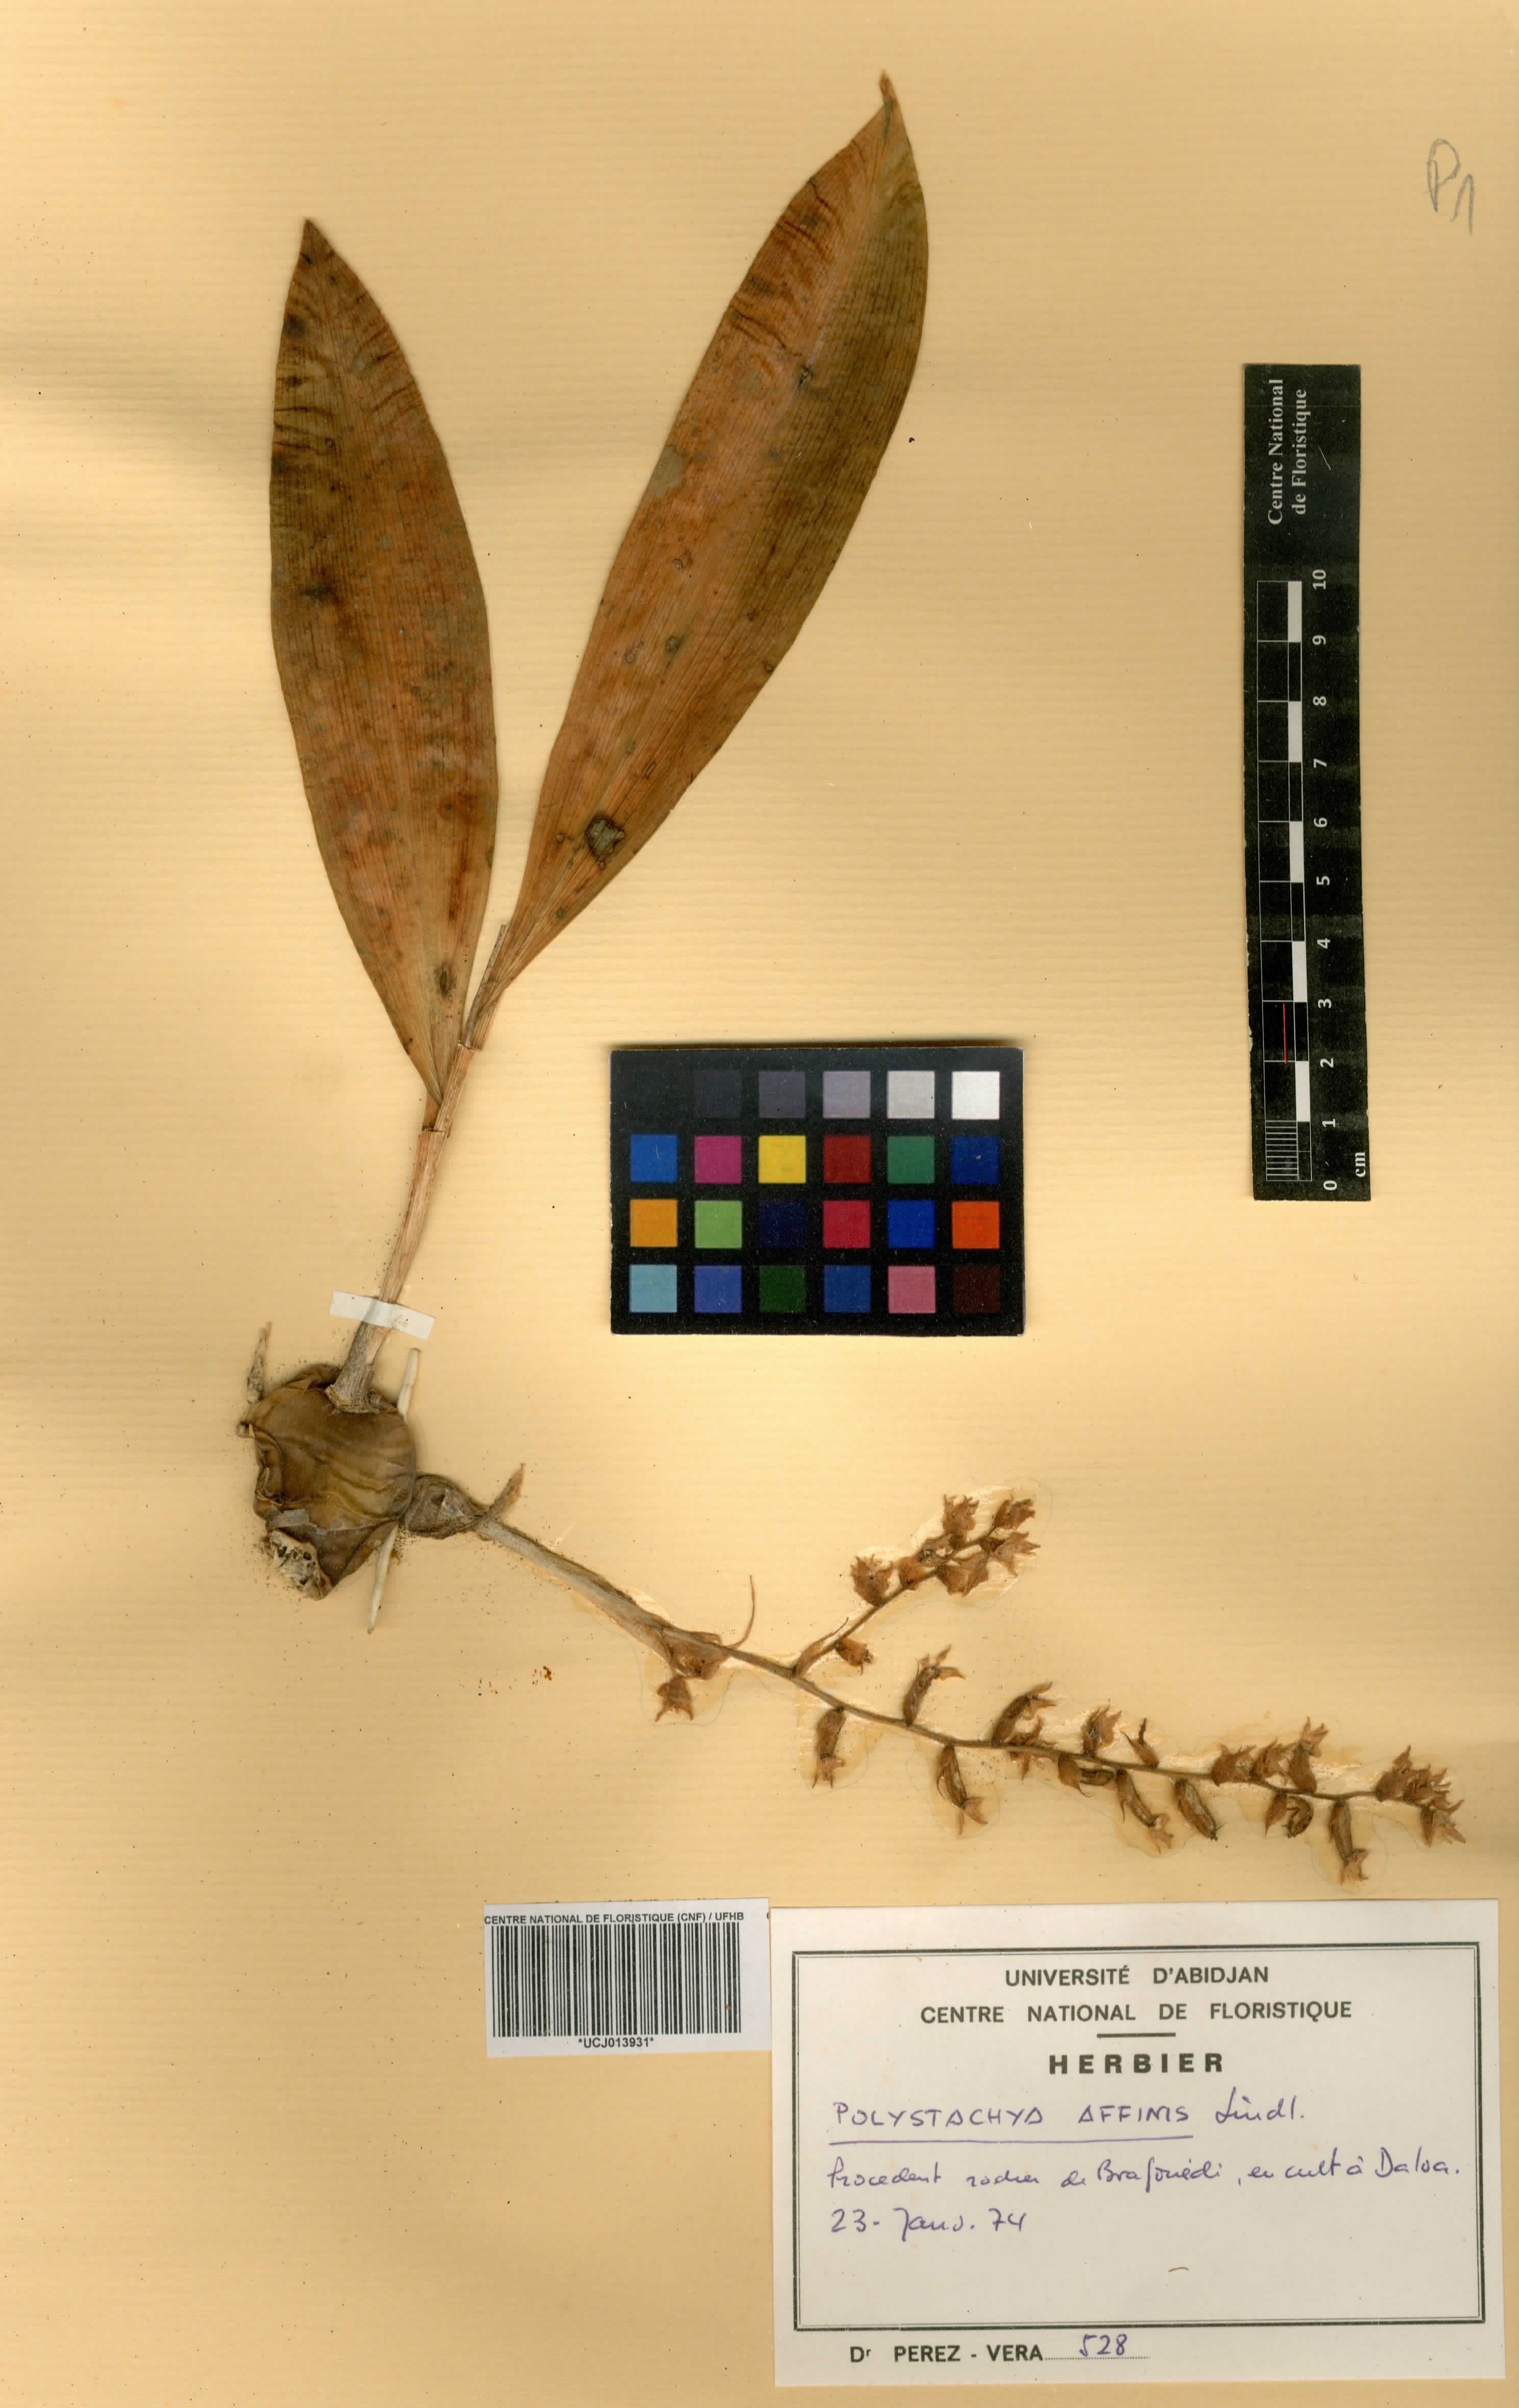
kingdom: Plantae
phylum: Tracheophyta
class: Liliopsida
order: Asparagales
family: Orchidaceae
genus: Polystachya
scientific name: Polystachya affinis
